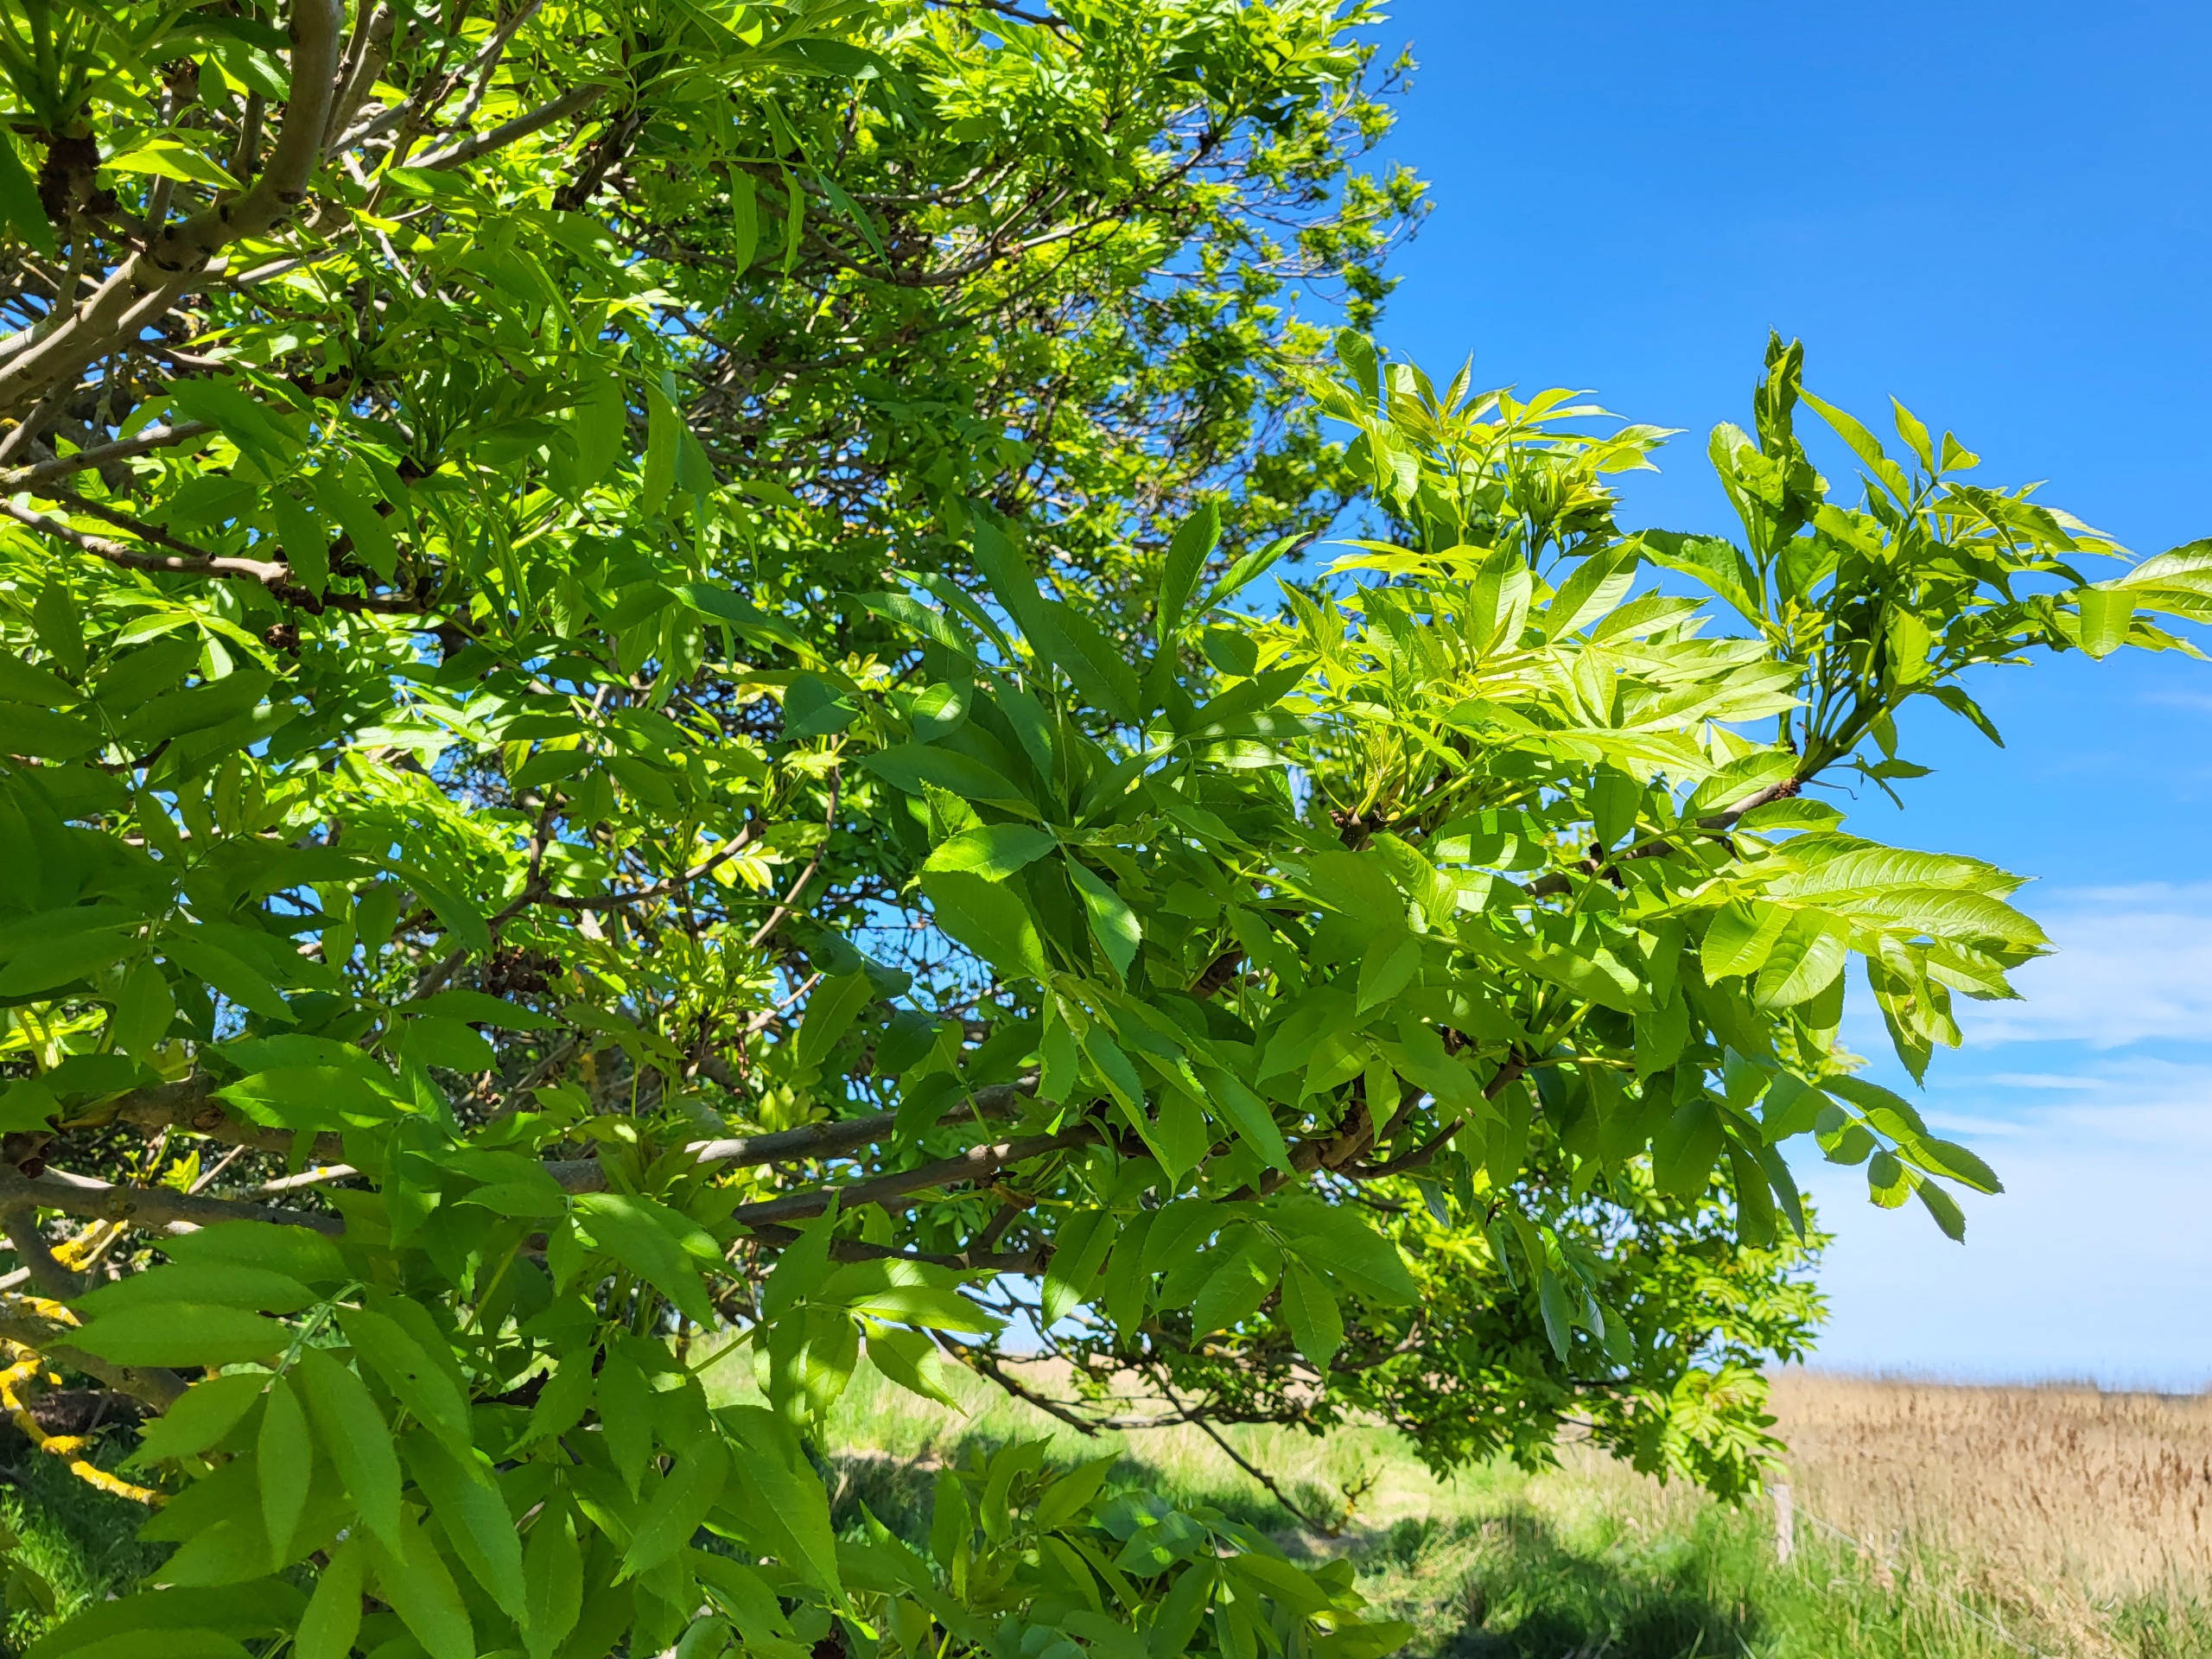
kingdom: Plantae
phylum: Tracheophyta
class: Magnoliopsida
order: Lamiales
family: Oleaceae
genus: Fraxinus
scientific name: Fraxinus excelsior
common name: Ask
